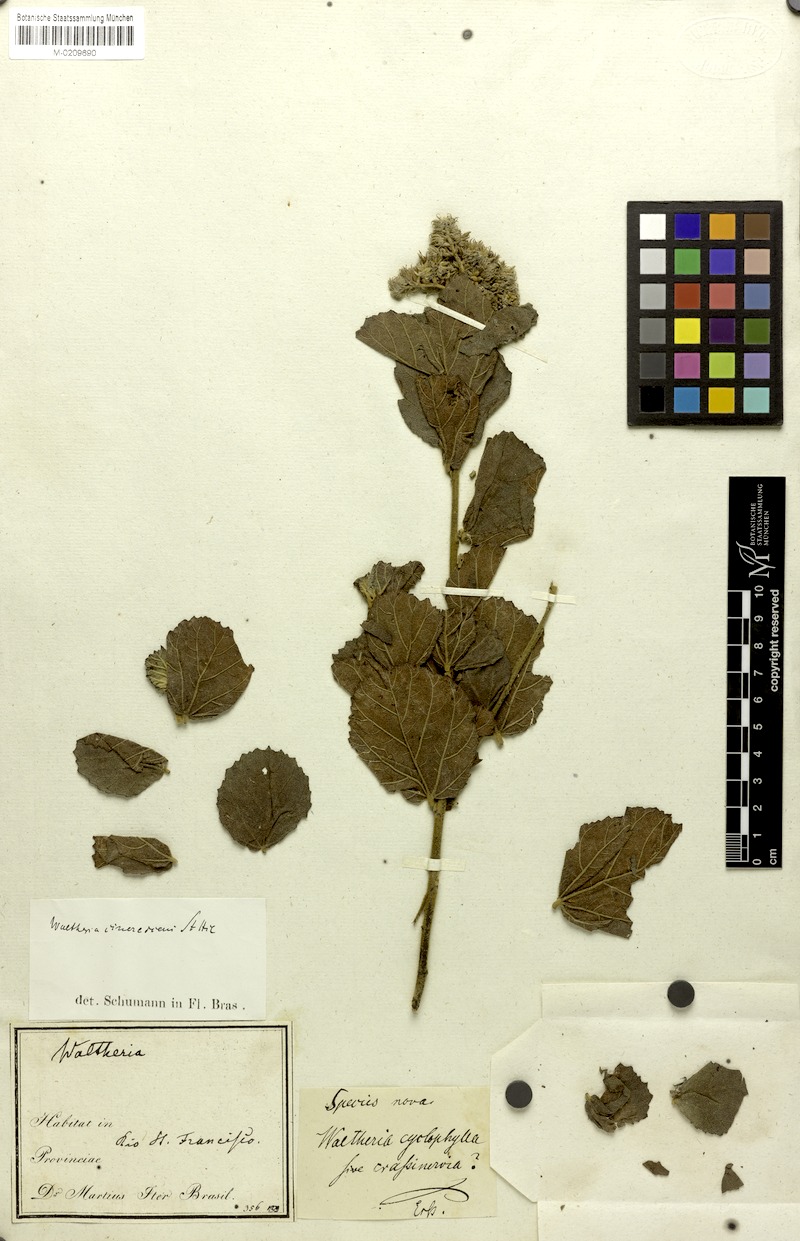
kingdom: Plantae
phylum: Tracheophyta
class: Magnoliopsida
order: Malvales
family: Malvaceae
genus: Waltheria
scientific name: Waltheria cinerascens
